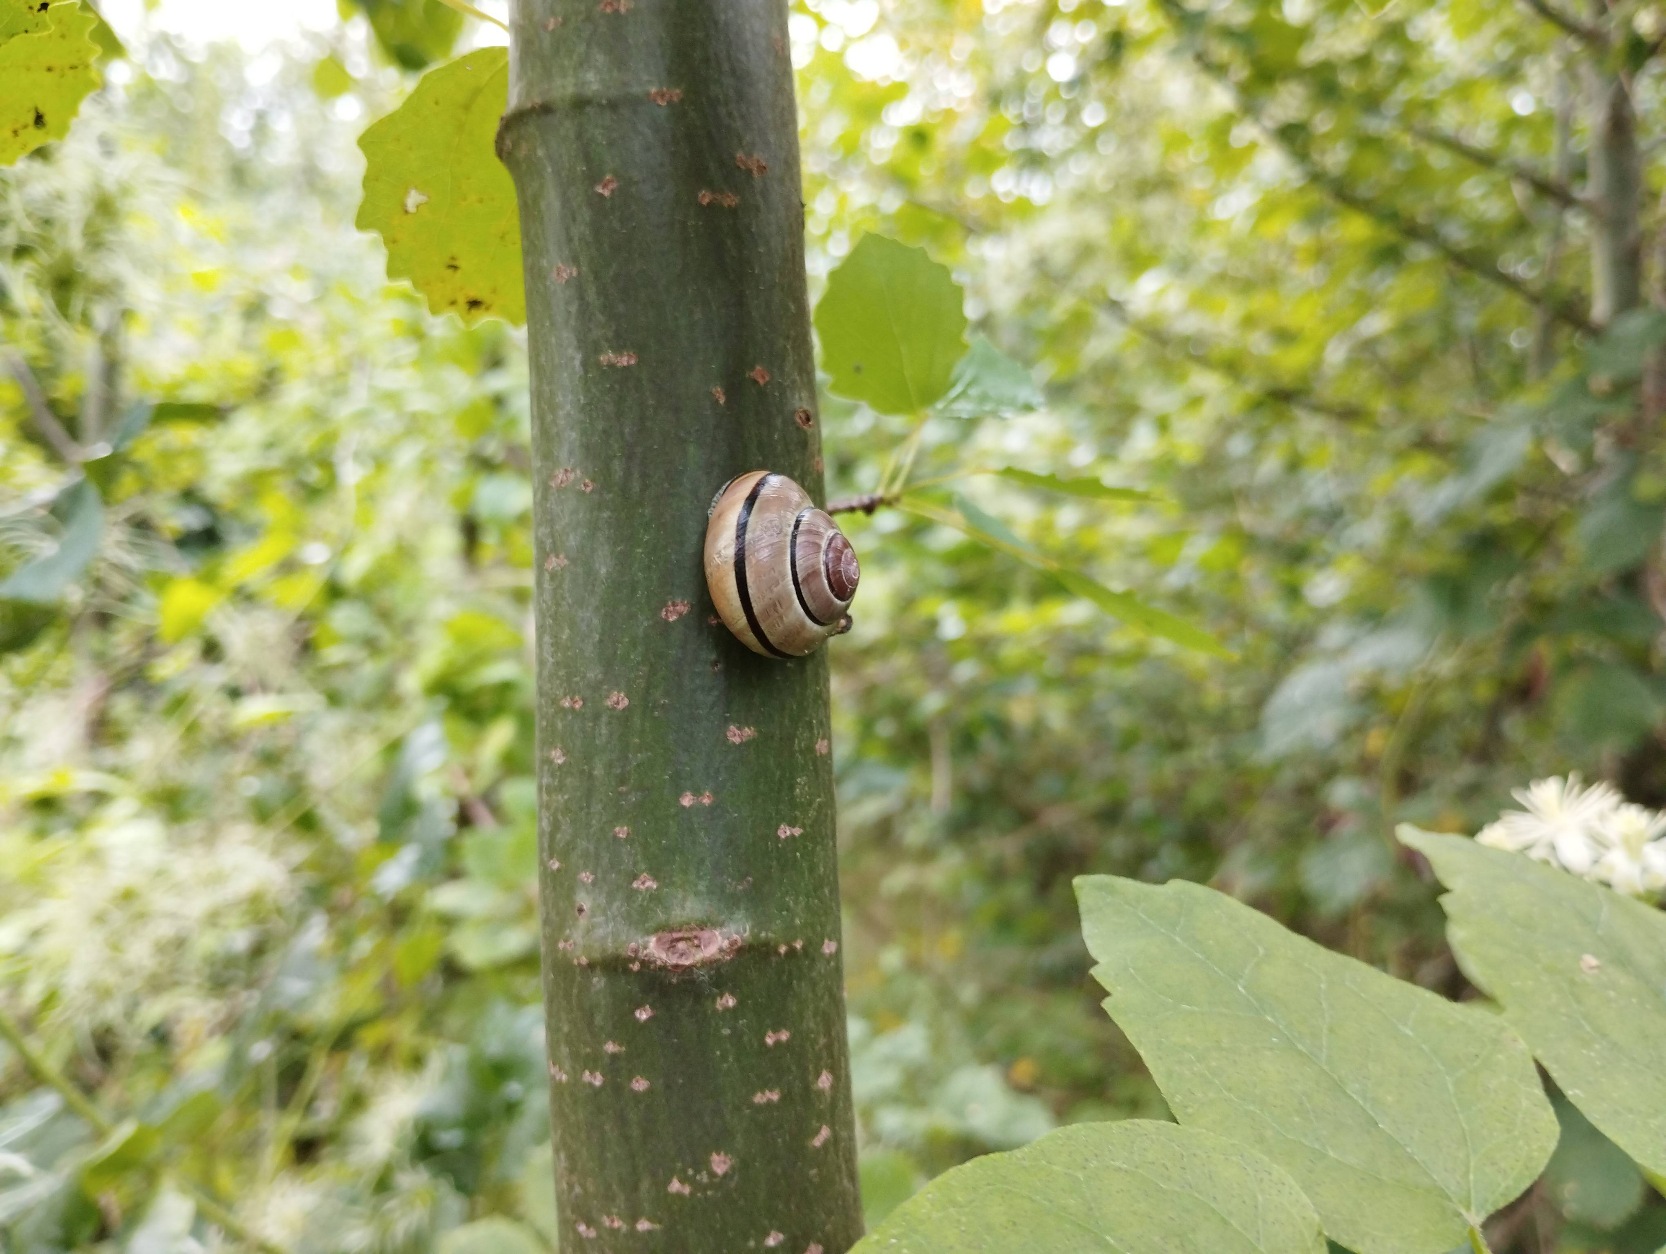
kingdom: Animalia
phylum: Mollusca
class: Gastropoda
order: Stylommatophora
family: Helicidae
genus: Cepaea
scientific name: Cepaea nemoralis
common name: Lundsnegl
